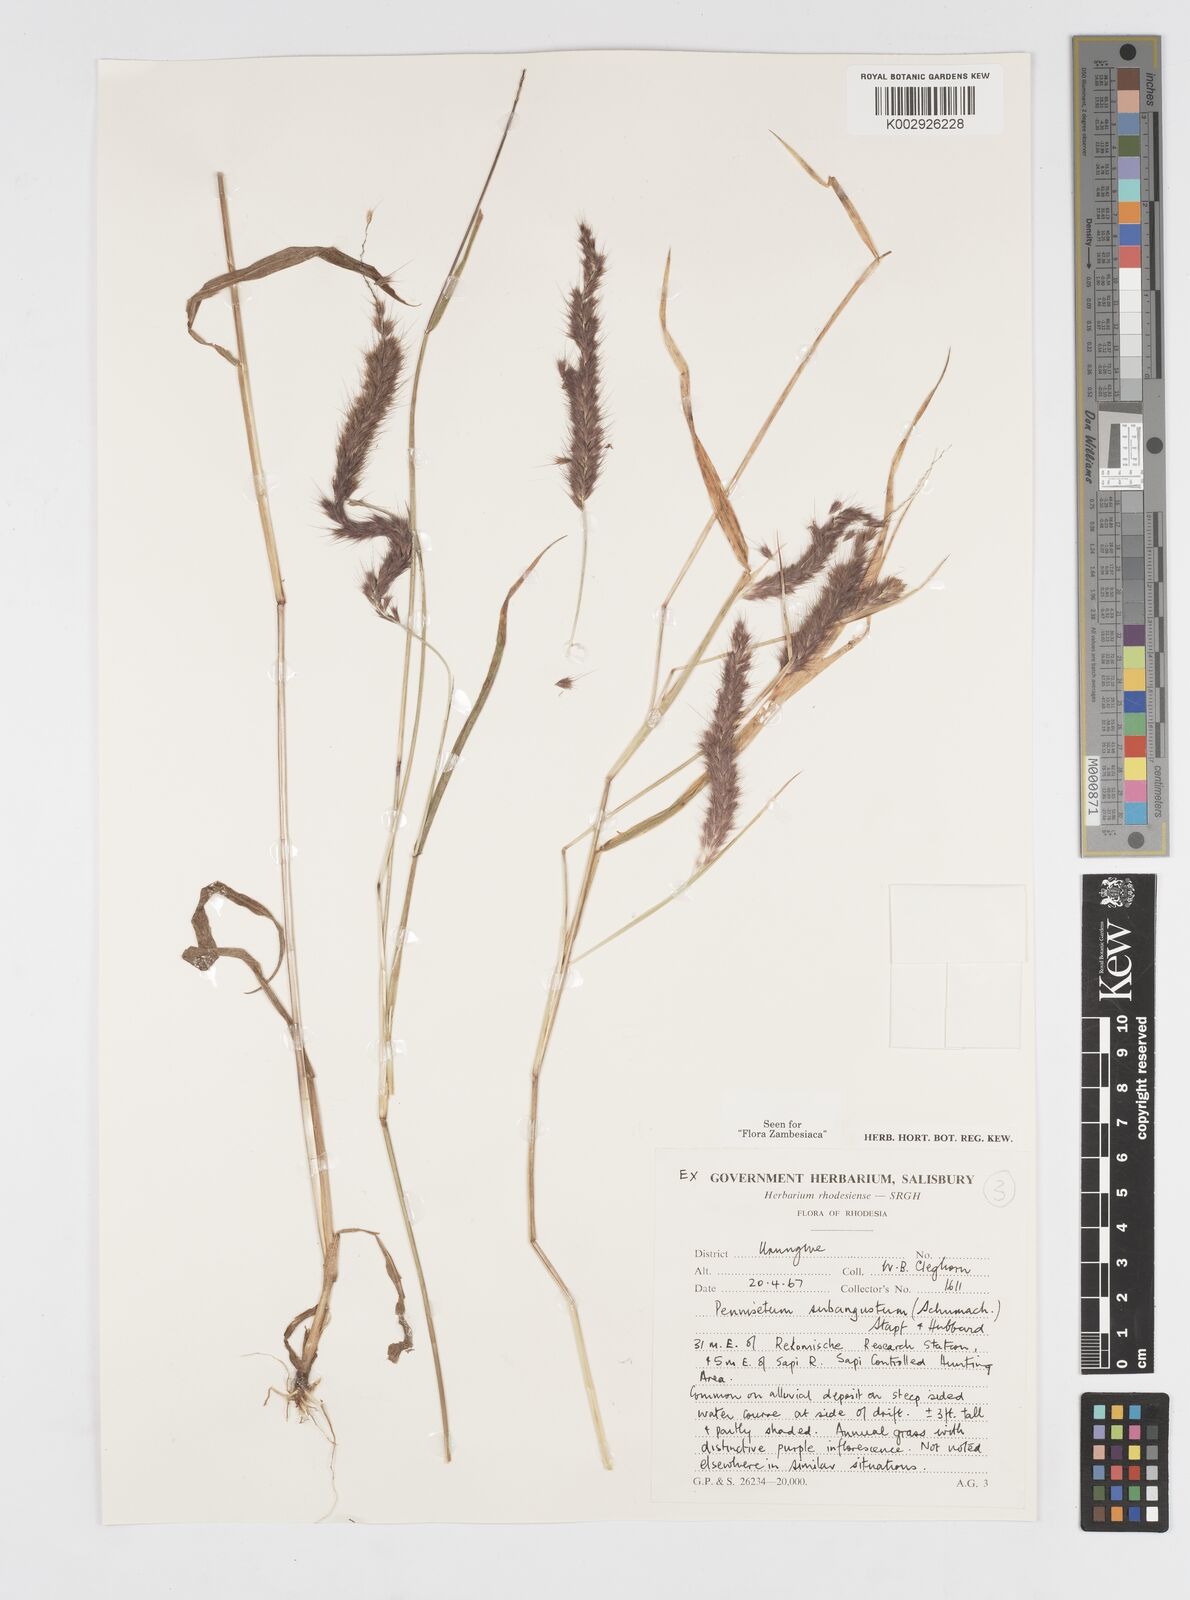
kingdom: Plantae
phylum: Tracheophyta
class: Liliopsida
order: Poales
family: Poaceae
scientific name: Poaceae
